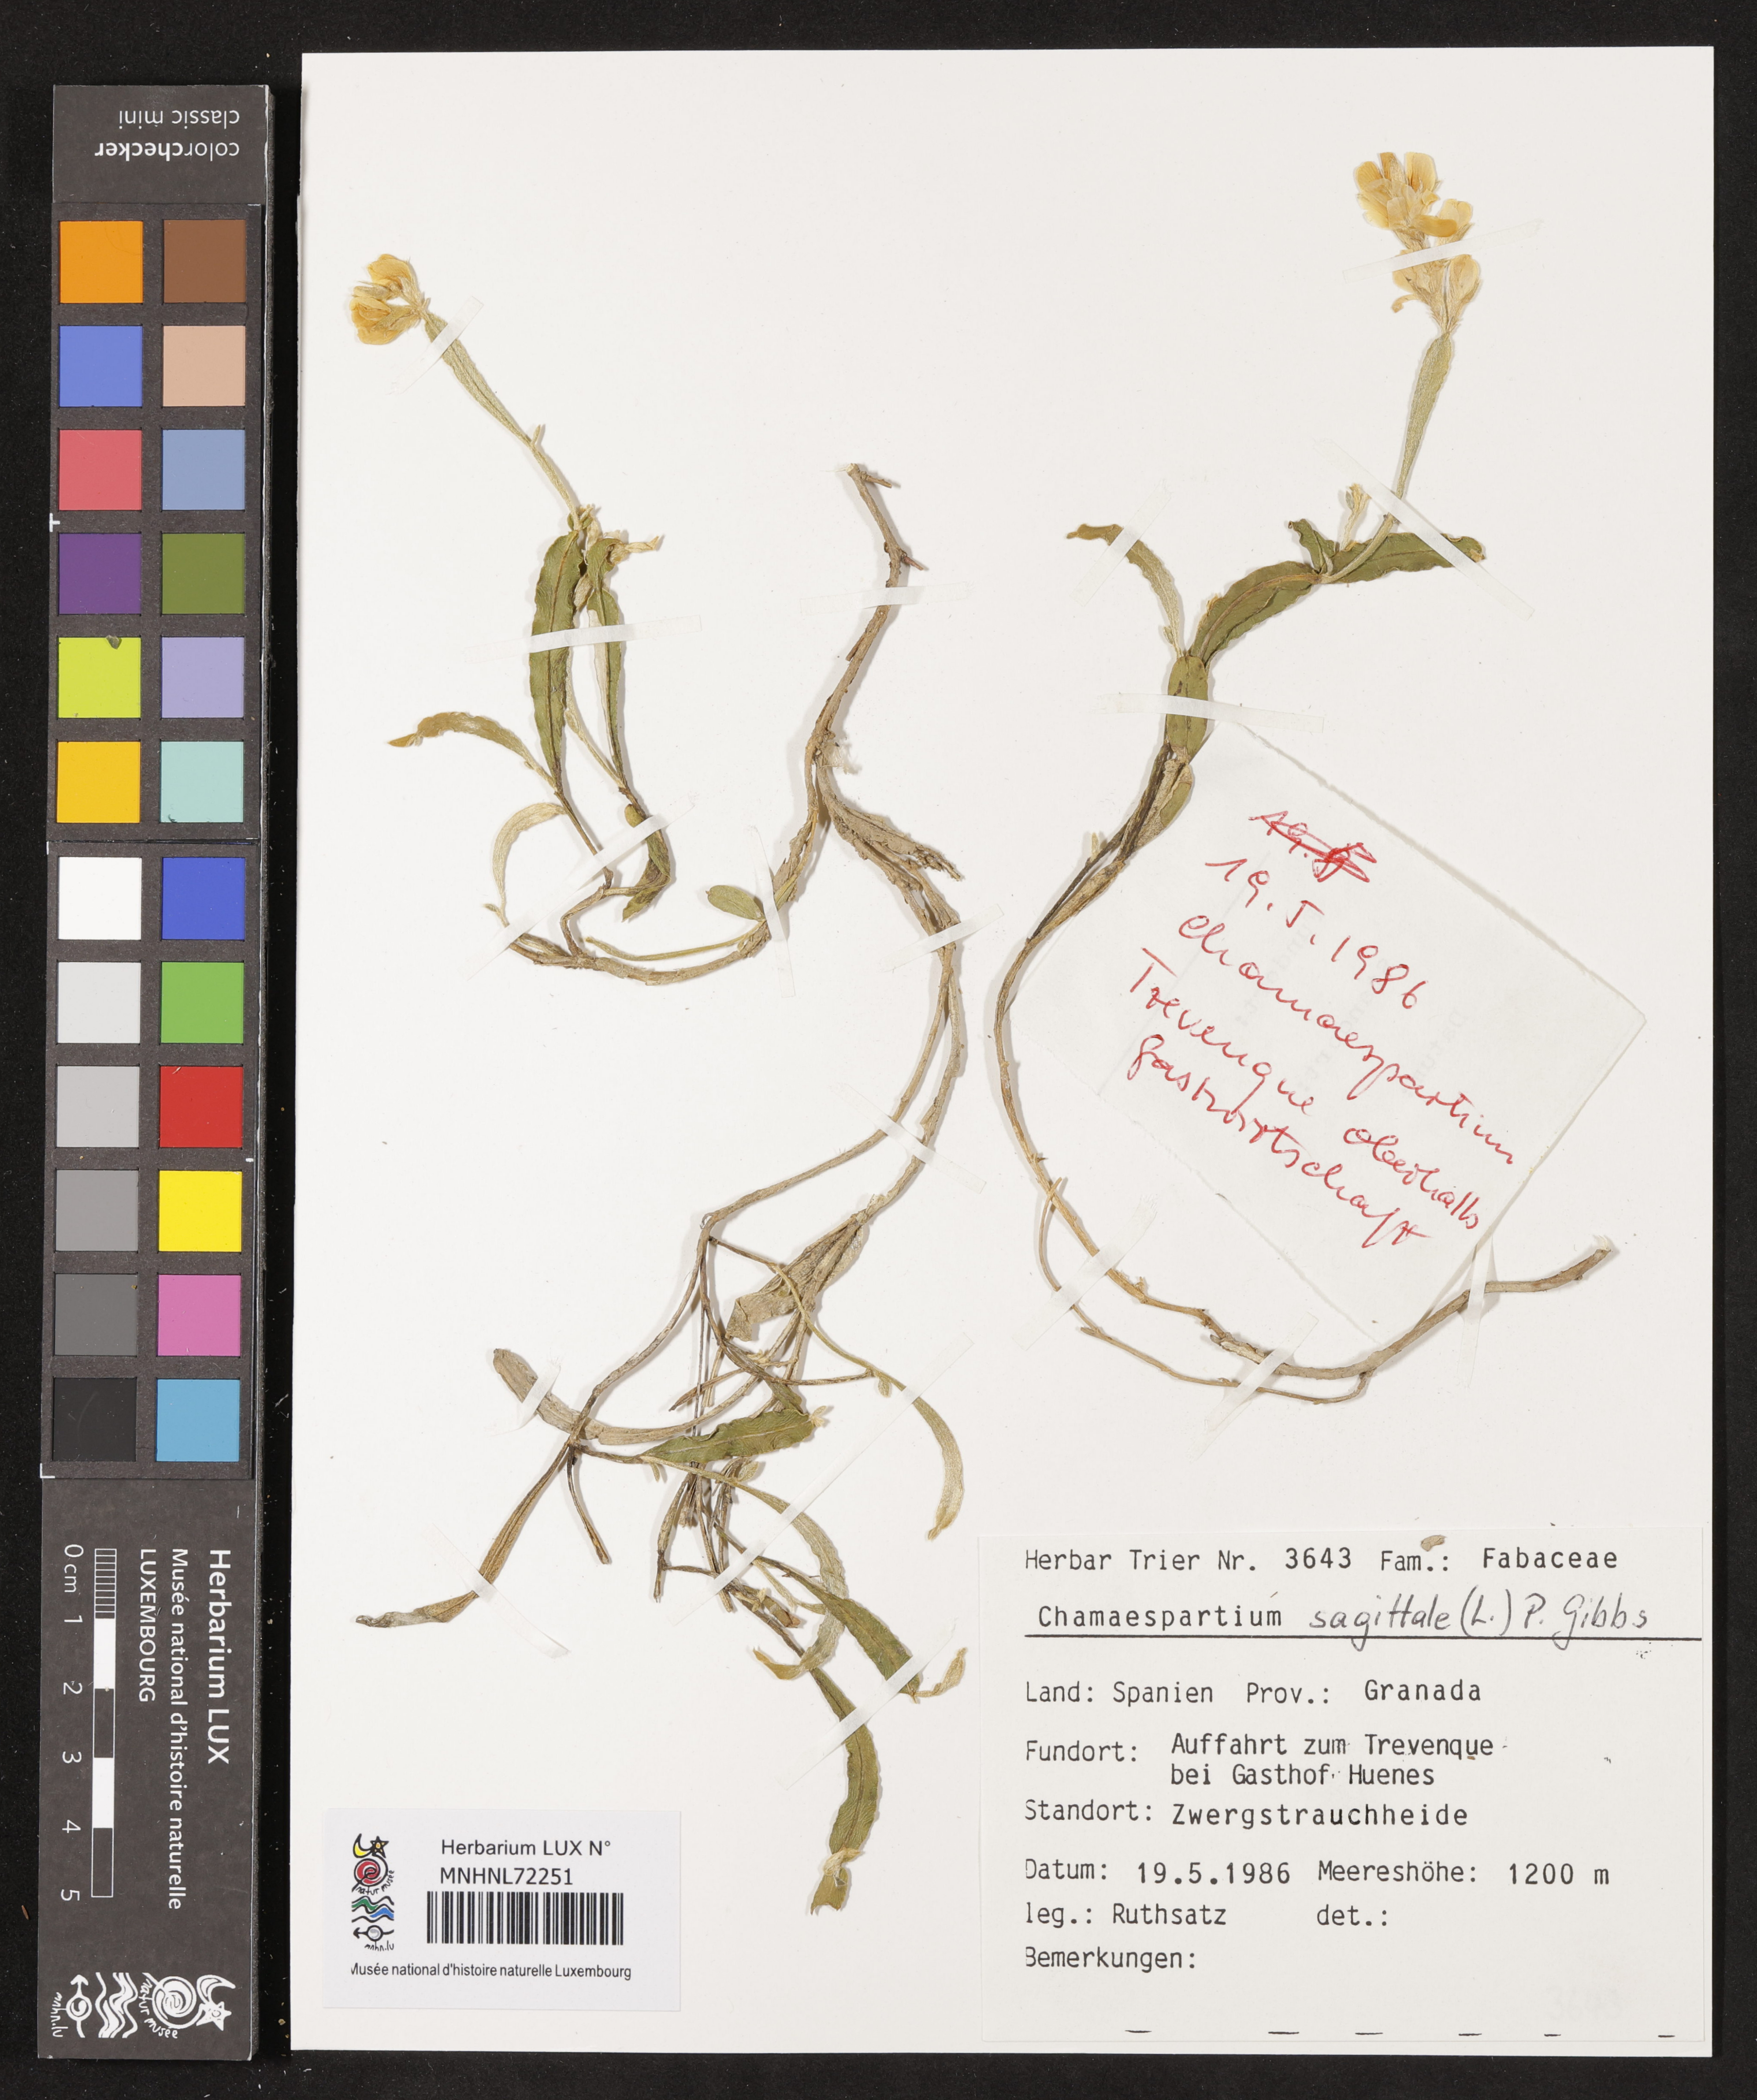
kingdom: Plantae
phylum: Tracheophyta
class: Magnoliopsida
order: Fabales
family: Fabaceae
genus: Genista
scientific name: Genista sagittalis
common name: Winged greenweed
